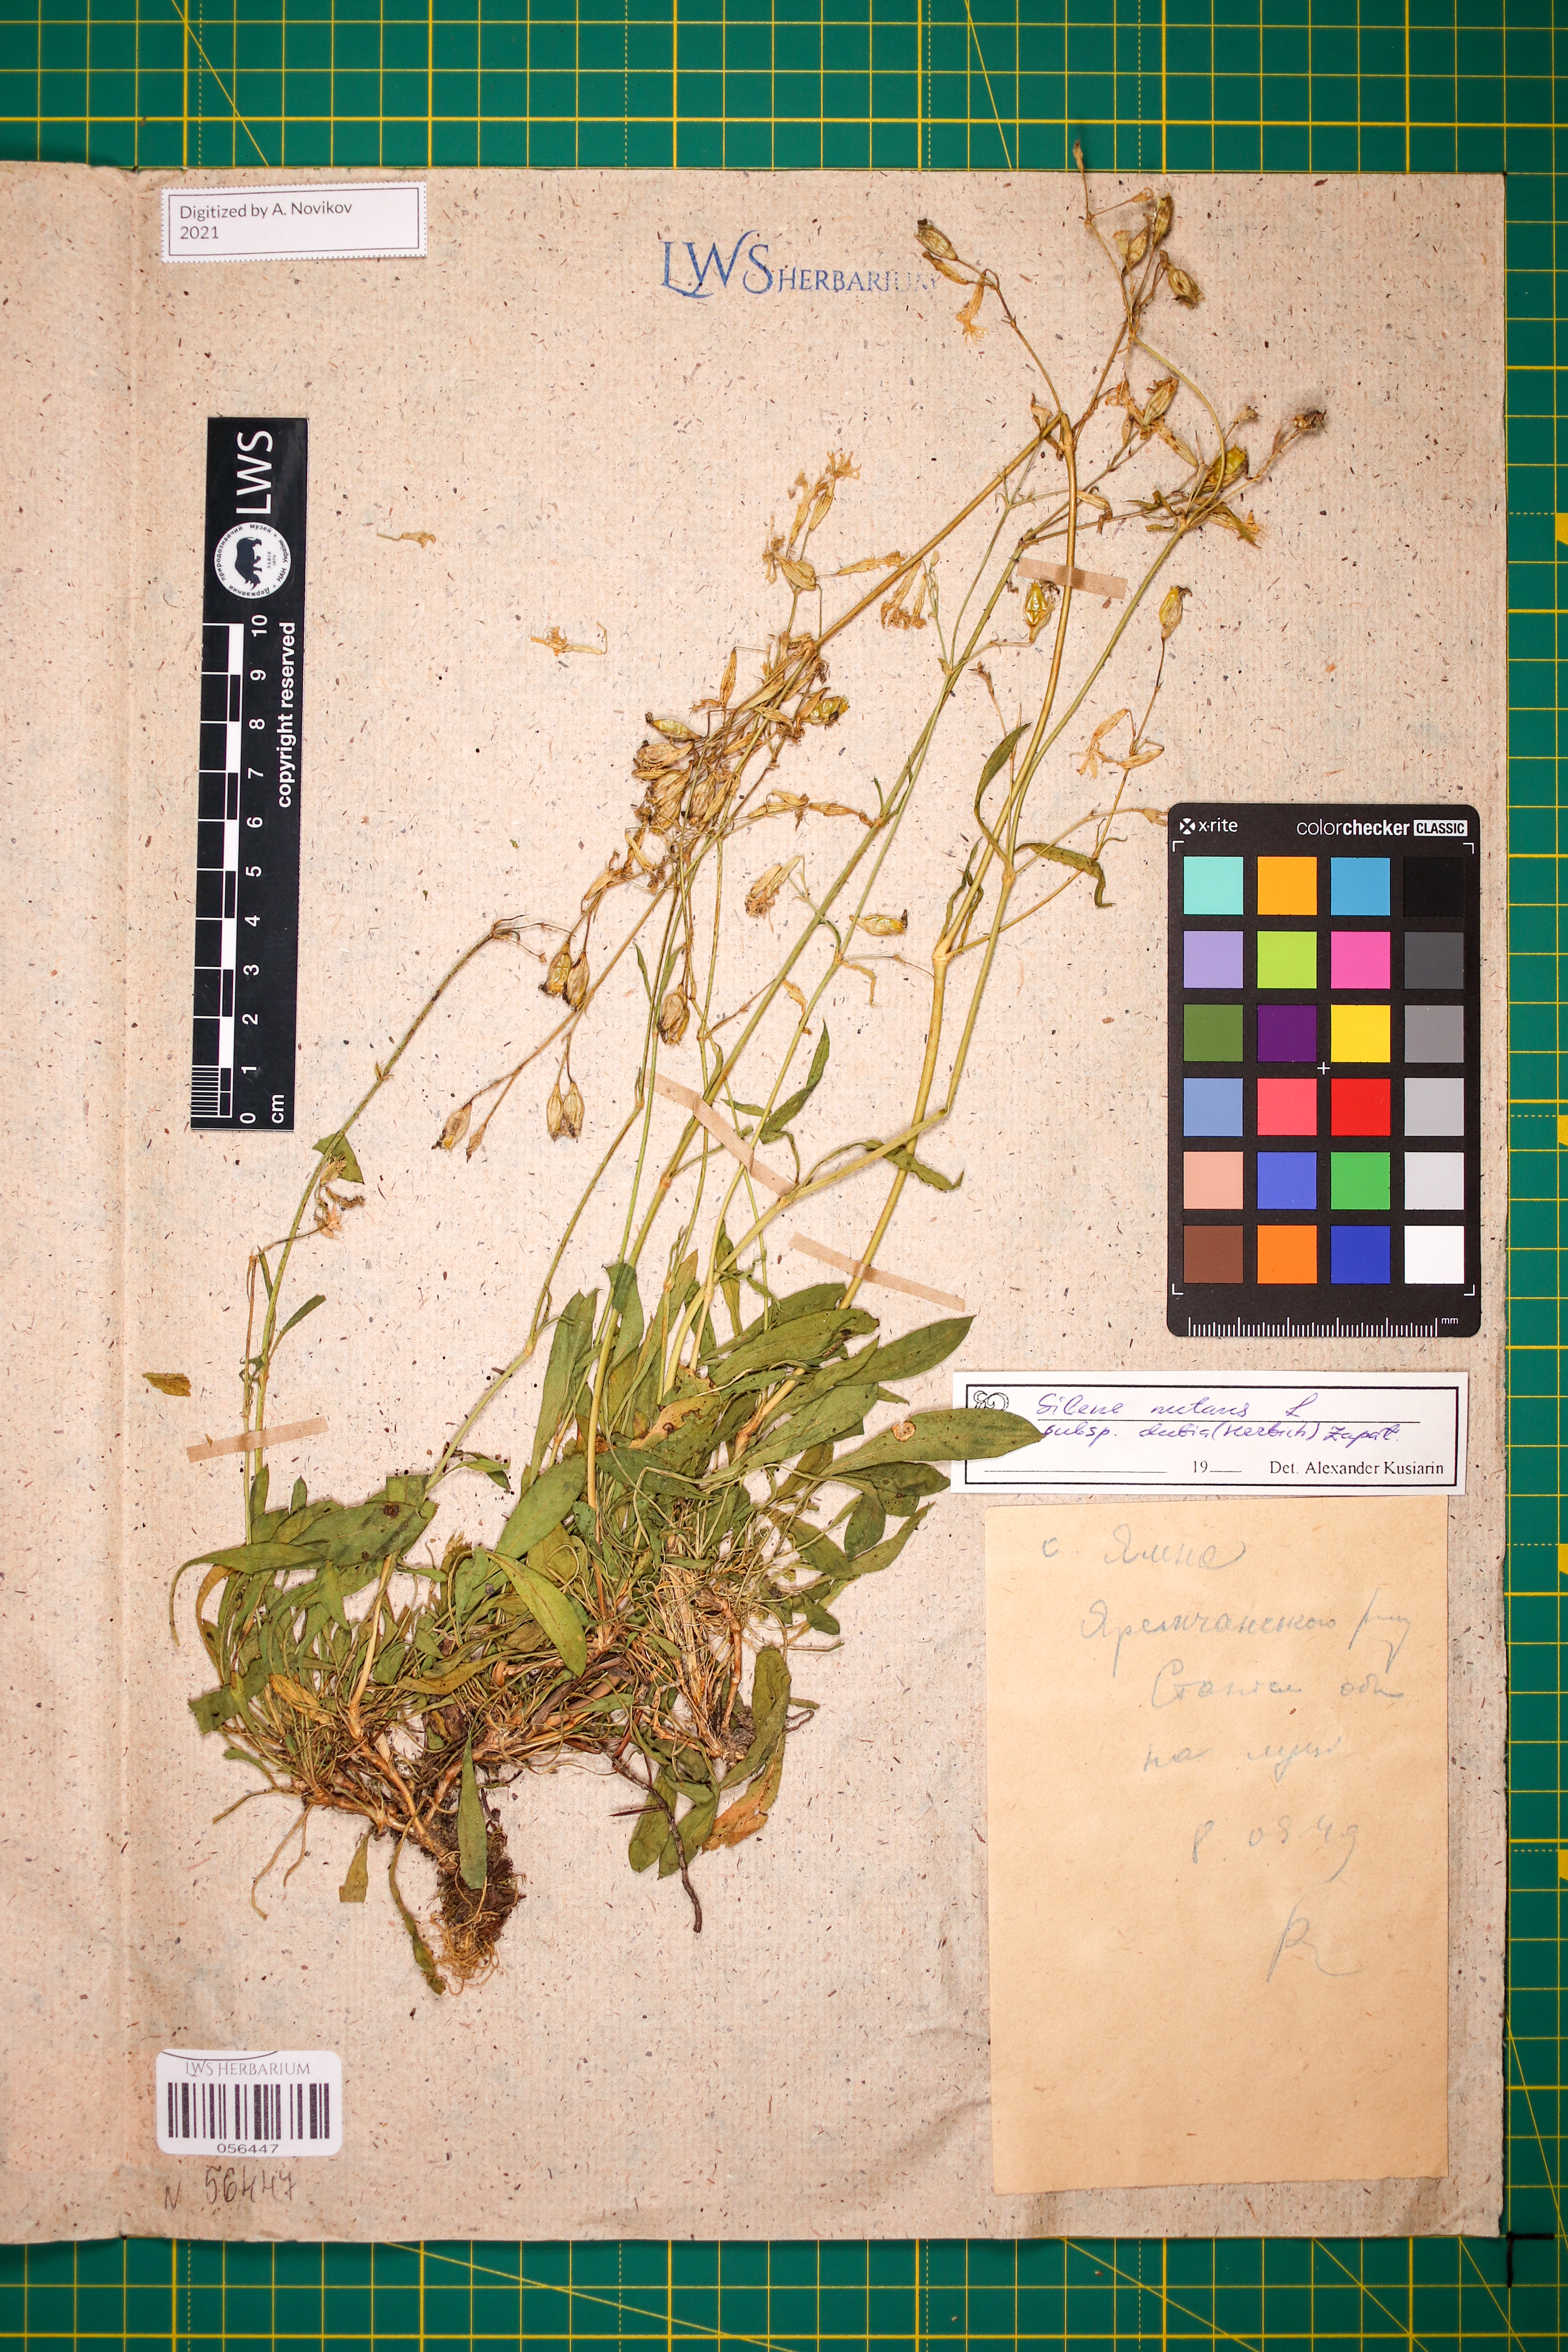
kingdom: Plantae
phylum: Tracheophyta
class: Magnoliopsida
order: Caryophyllales
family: Caryophyllaceae
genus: Silene
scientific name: Silene nutans
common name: Nottingham catchfly
